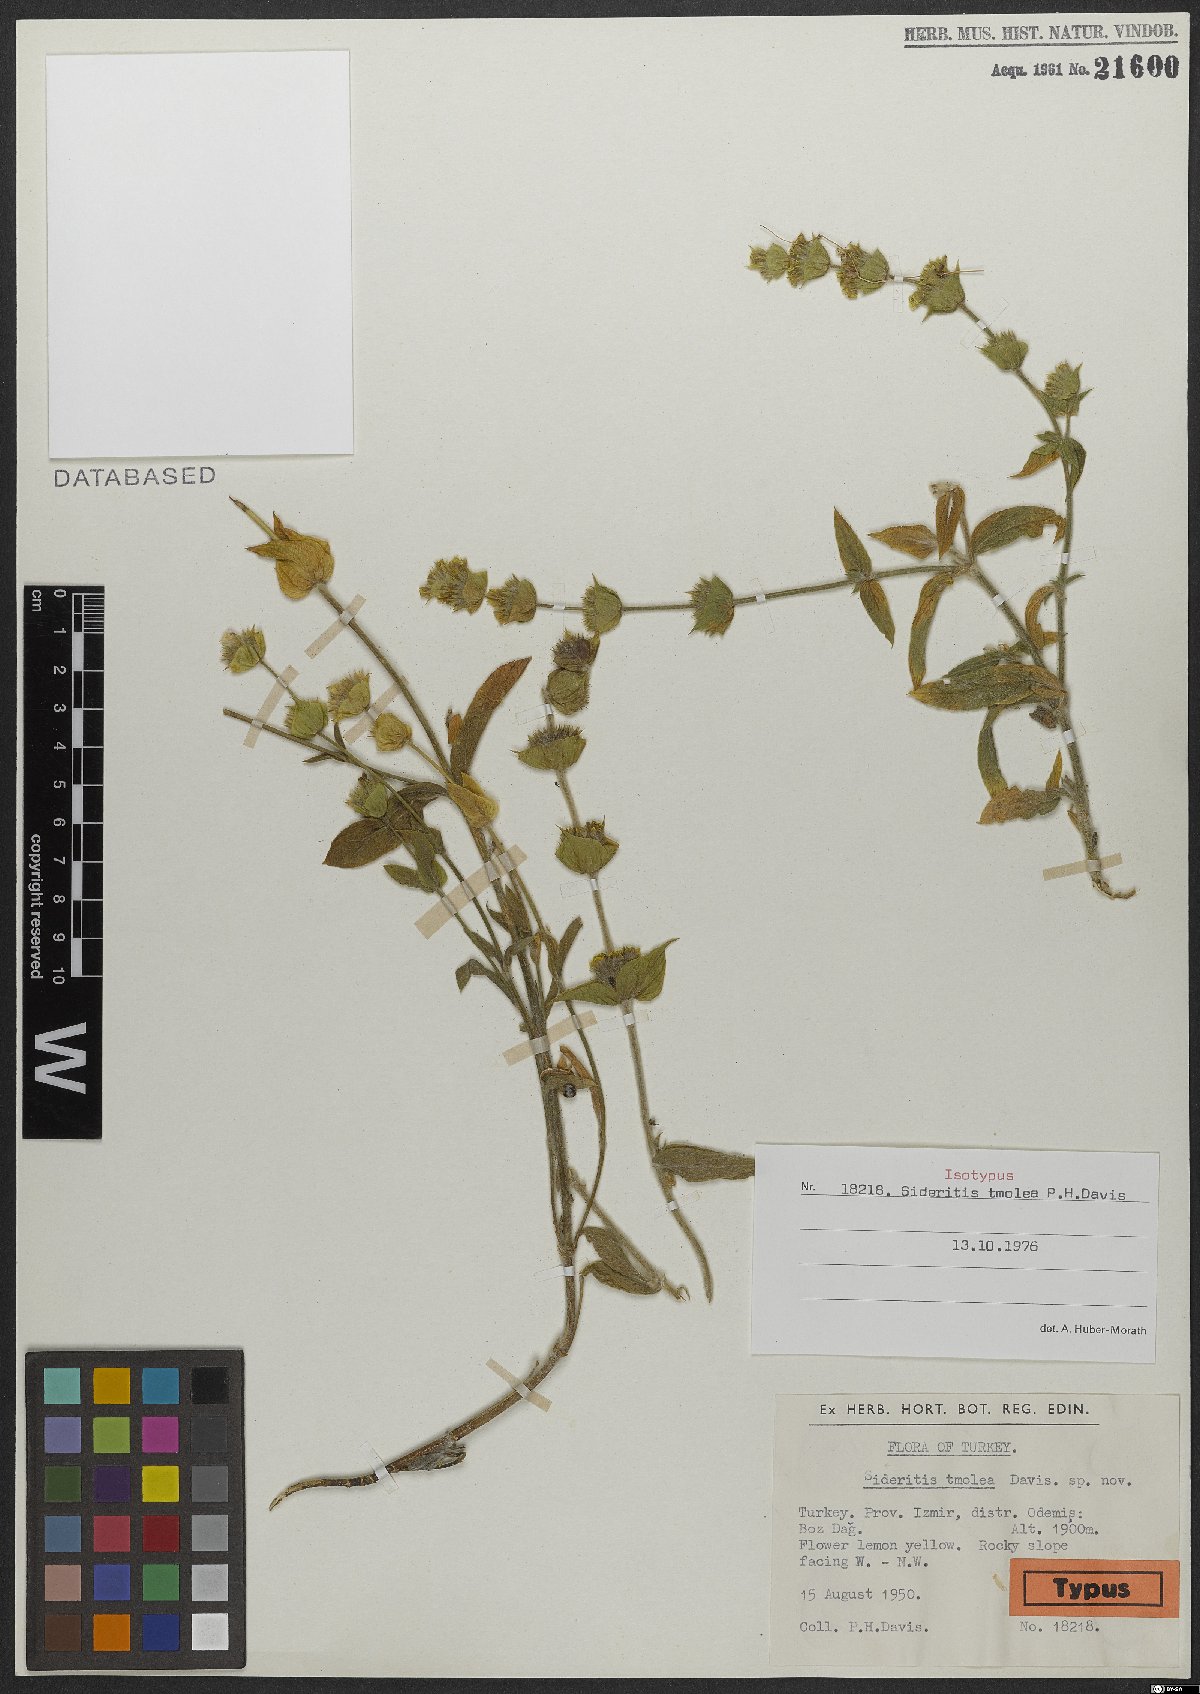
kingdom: Plantae
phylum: Tracheophyta
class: Magnoliopsida
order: Lamiales
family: Lamiaceae
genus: Sideritis
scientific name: Sideritis tmolea
